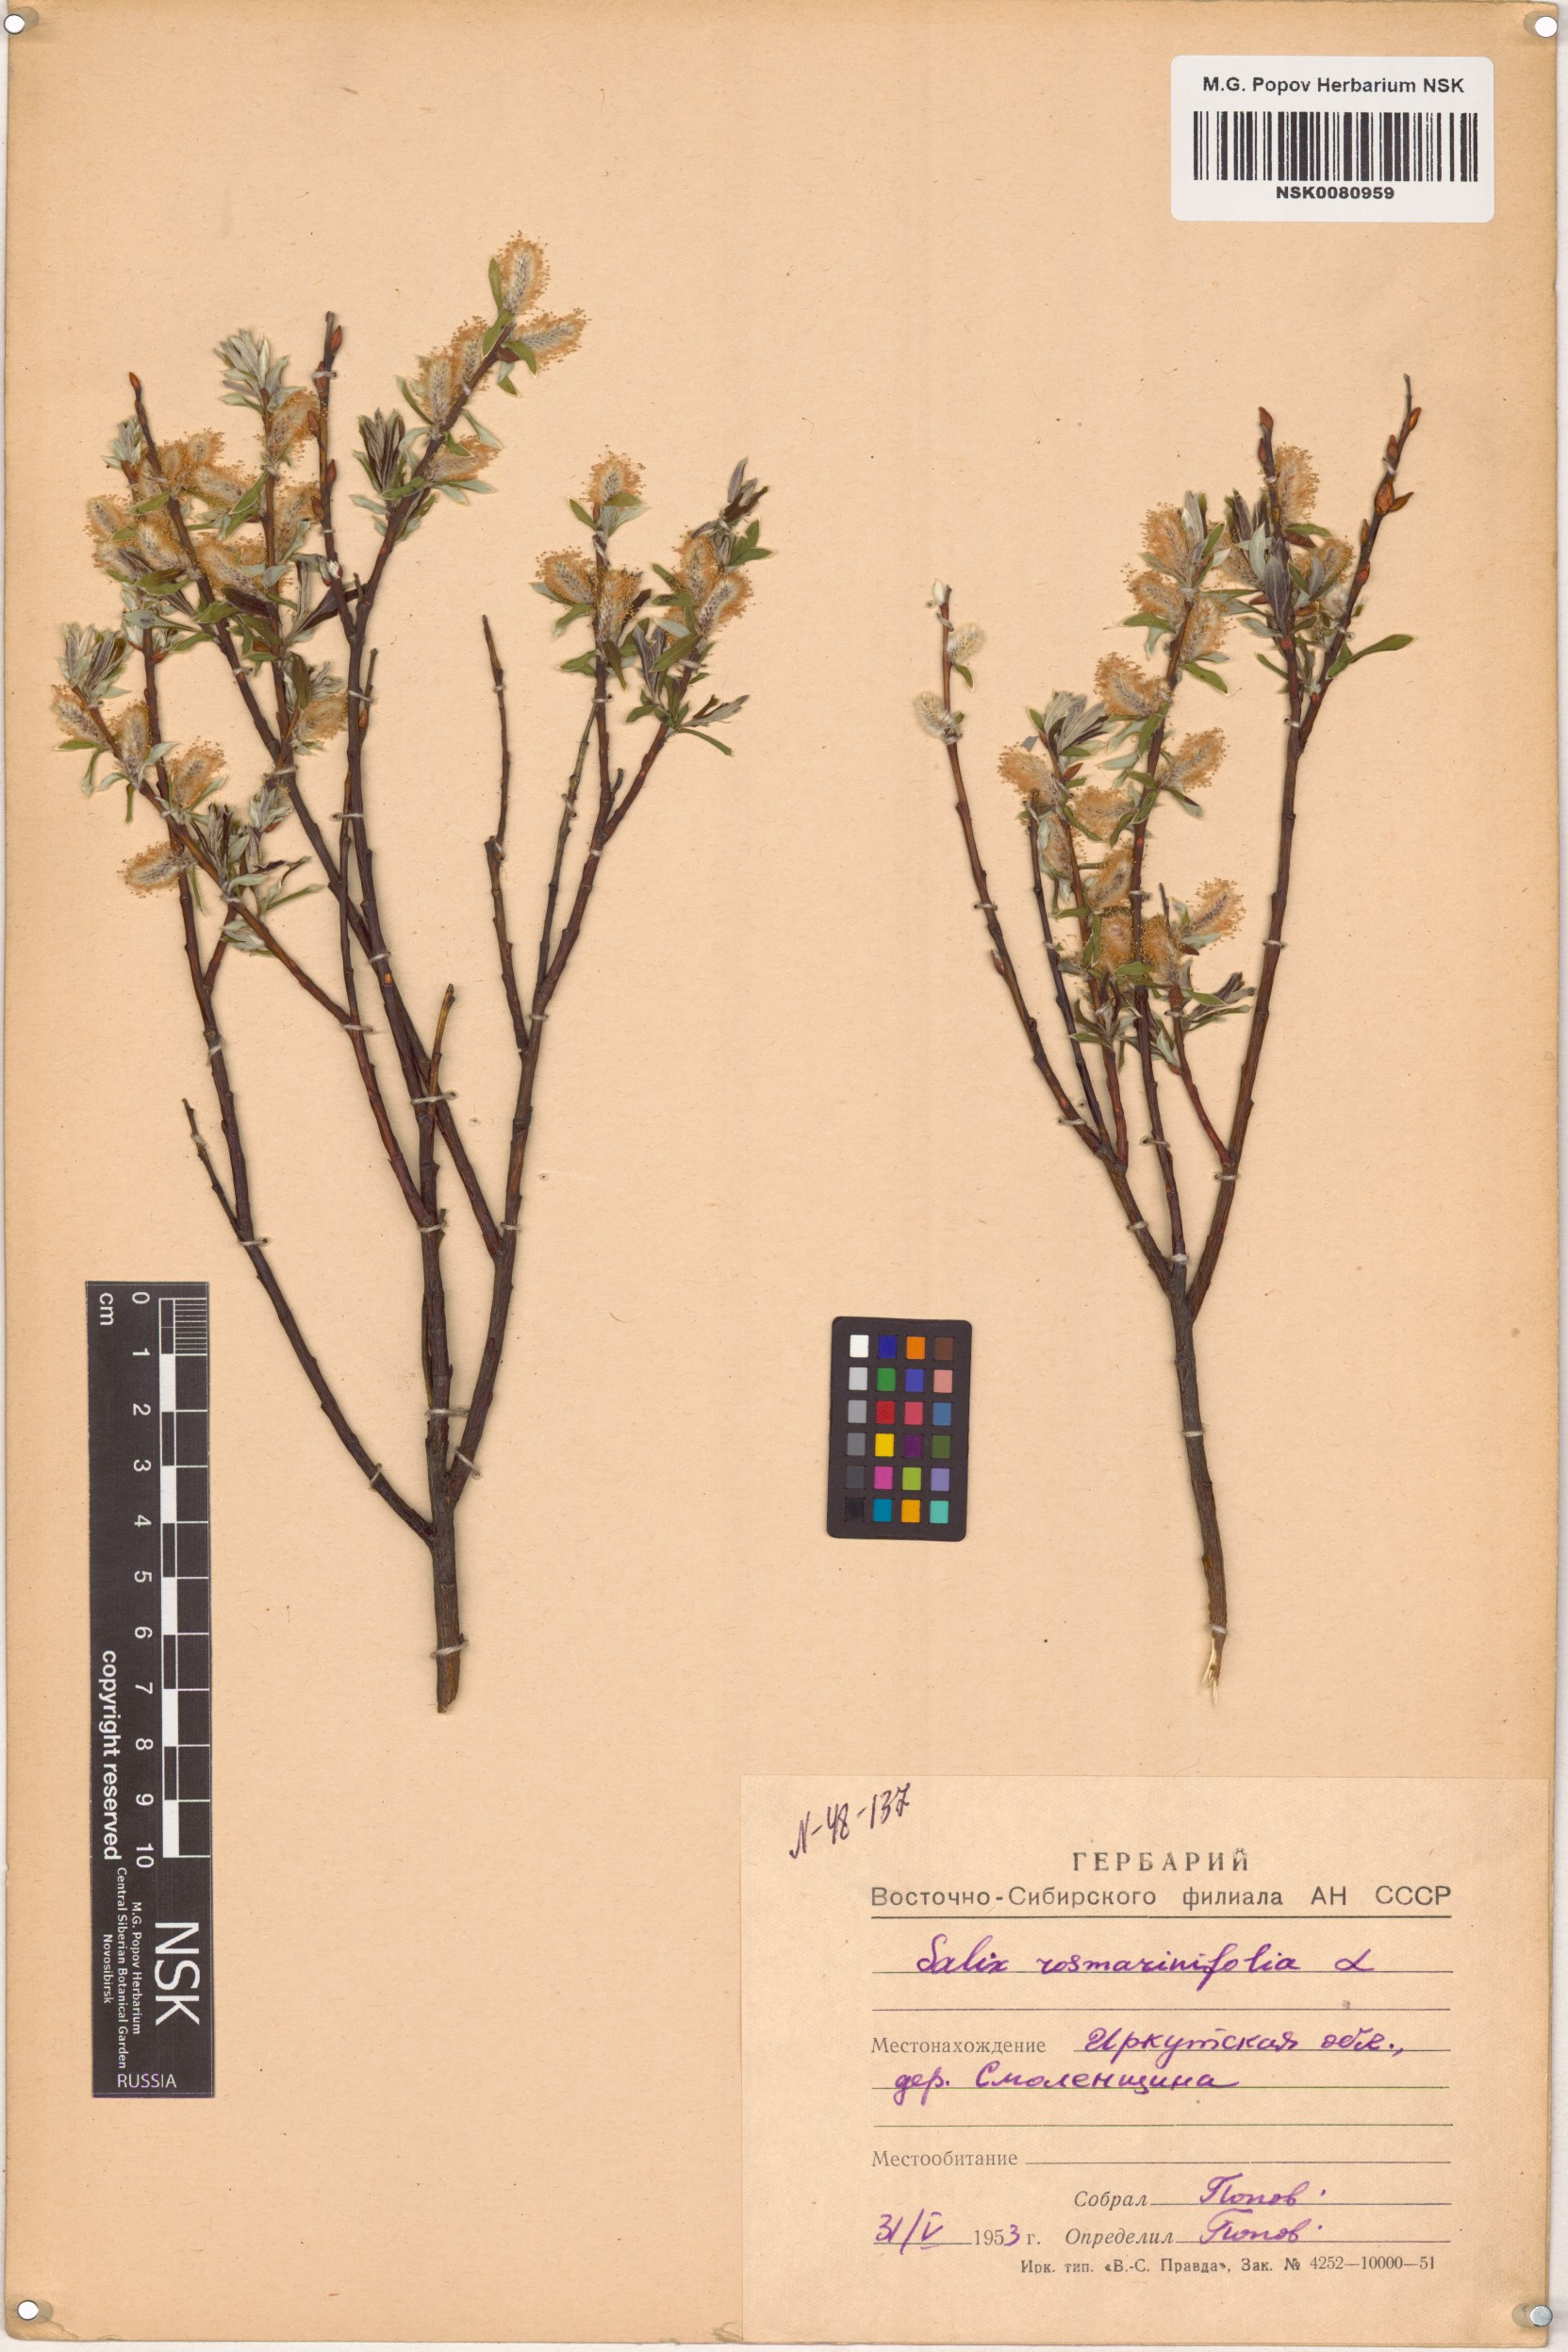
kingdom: Plantae
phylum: Tracheophyta
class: Magnoliopsida
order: Malpighiales
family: Salicaceae
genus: Salix
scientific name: Salix rosmarinifolia
